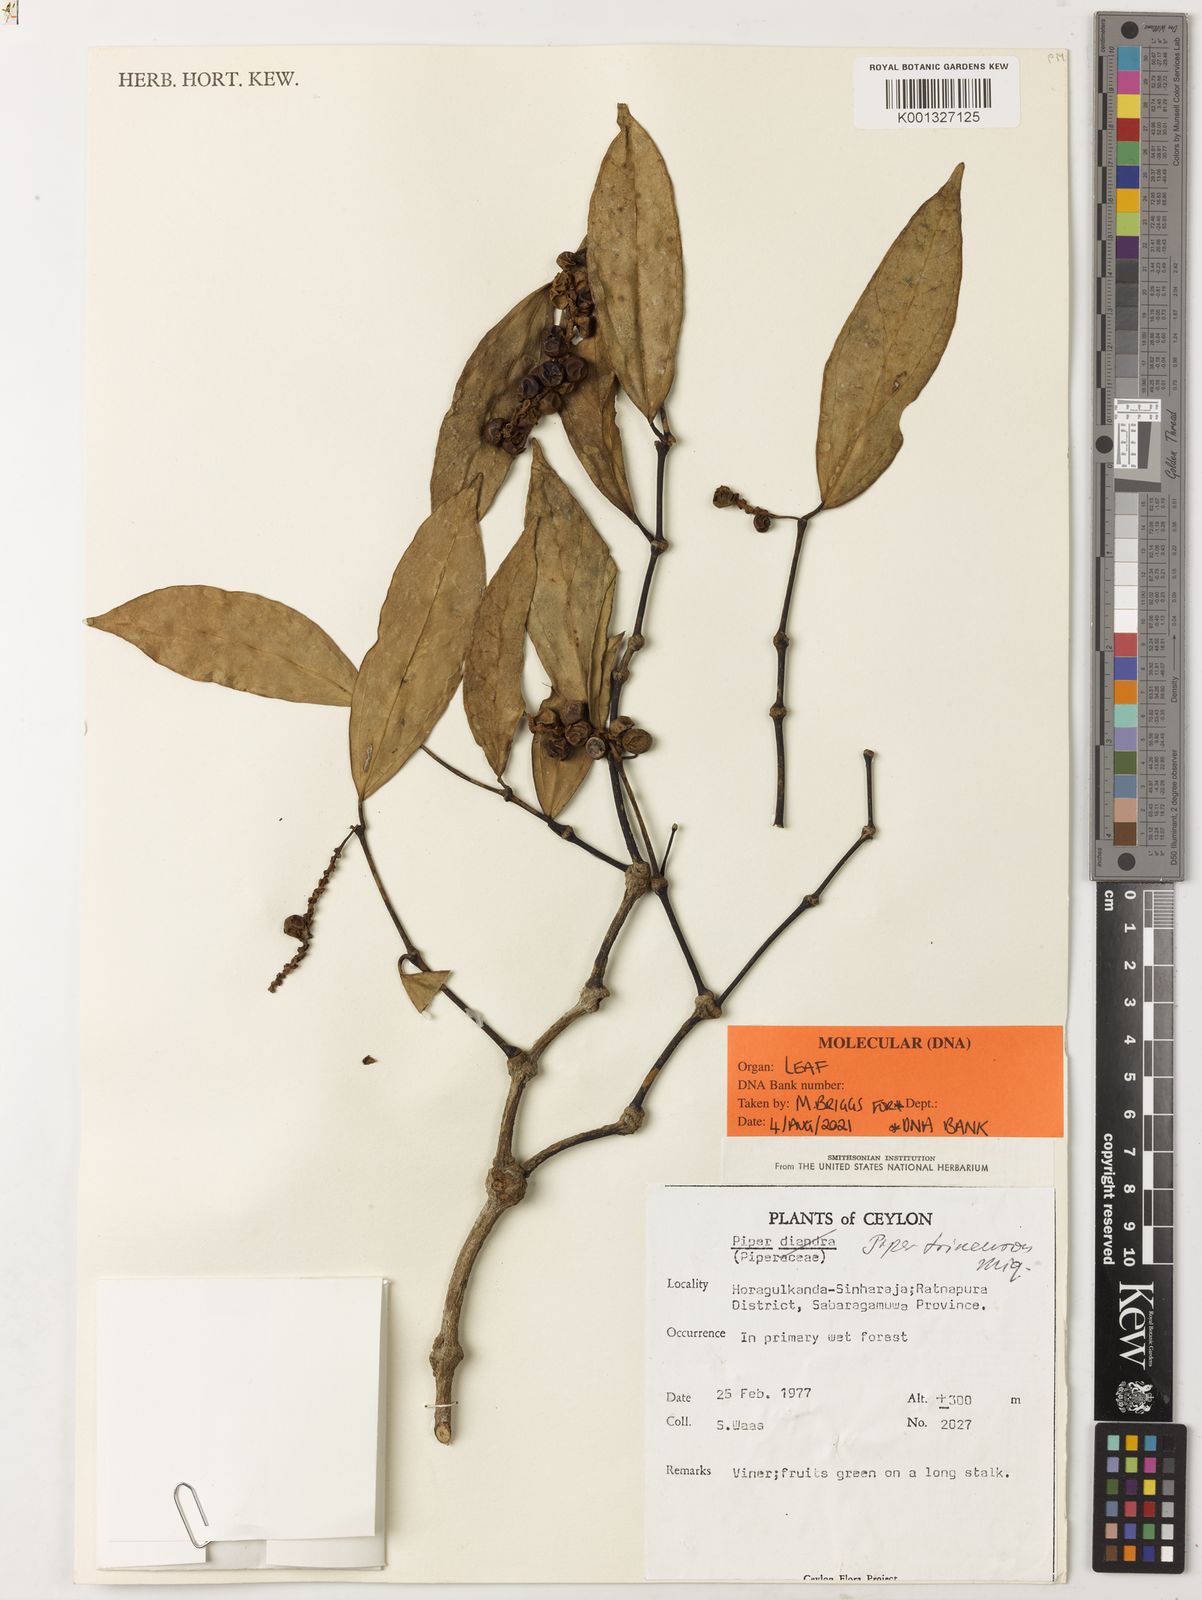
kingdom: Plantae
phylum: Tracheophyta
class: Magnoliopsida
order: Piperales
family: Piperaceae
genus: Piper
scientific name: Piper trineuron
